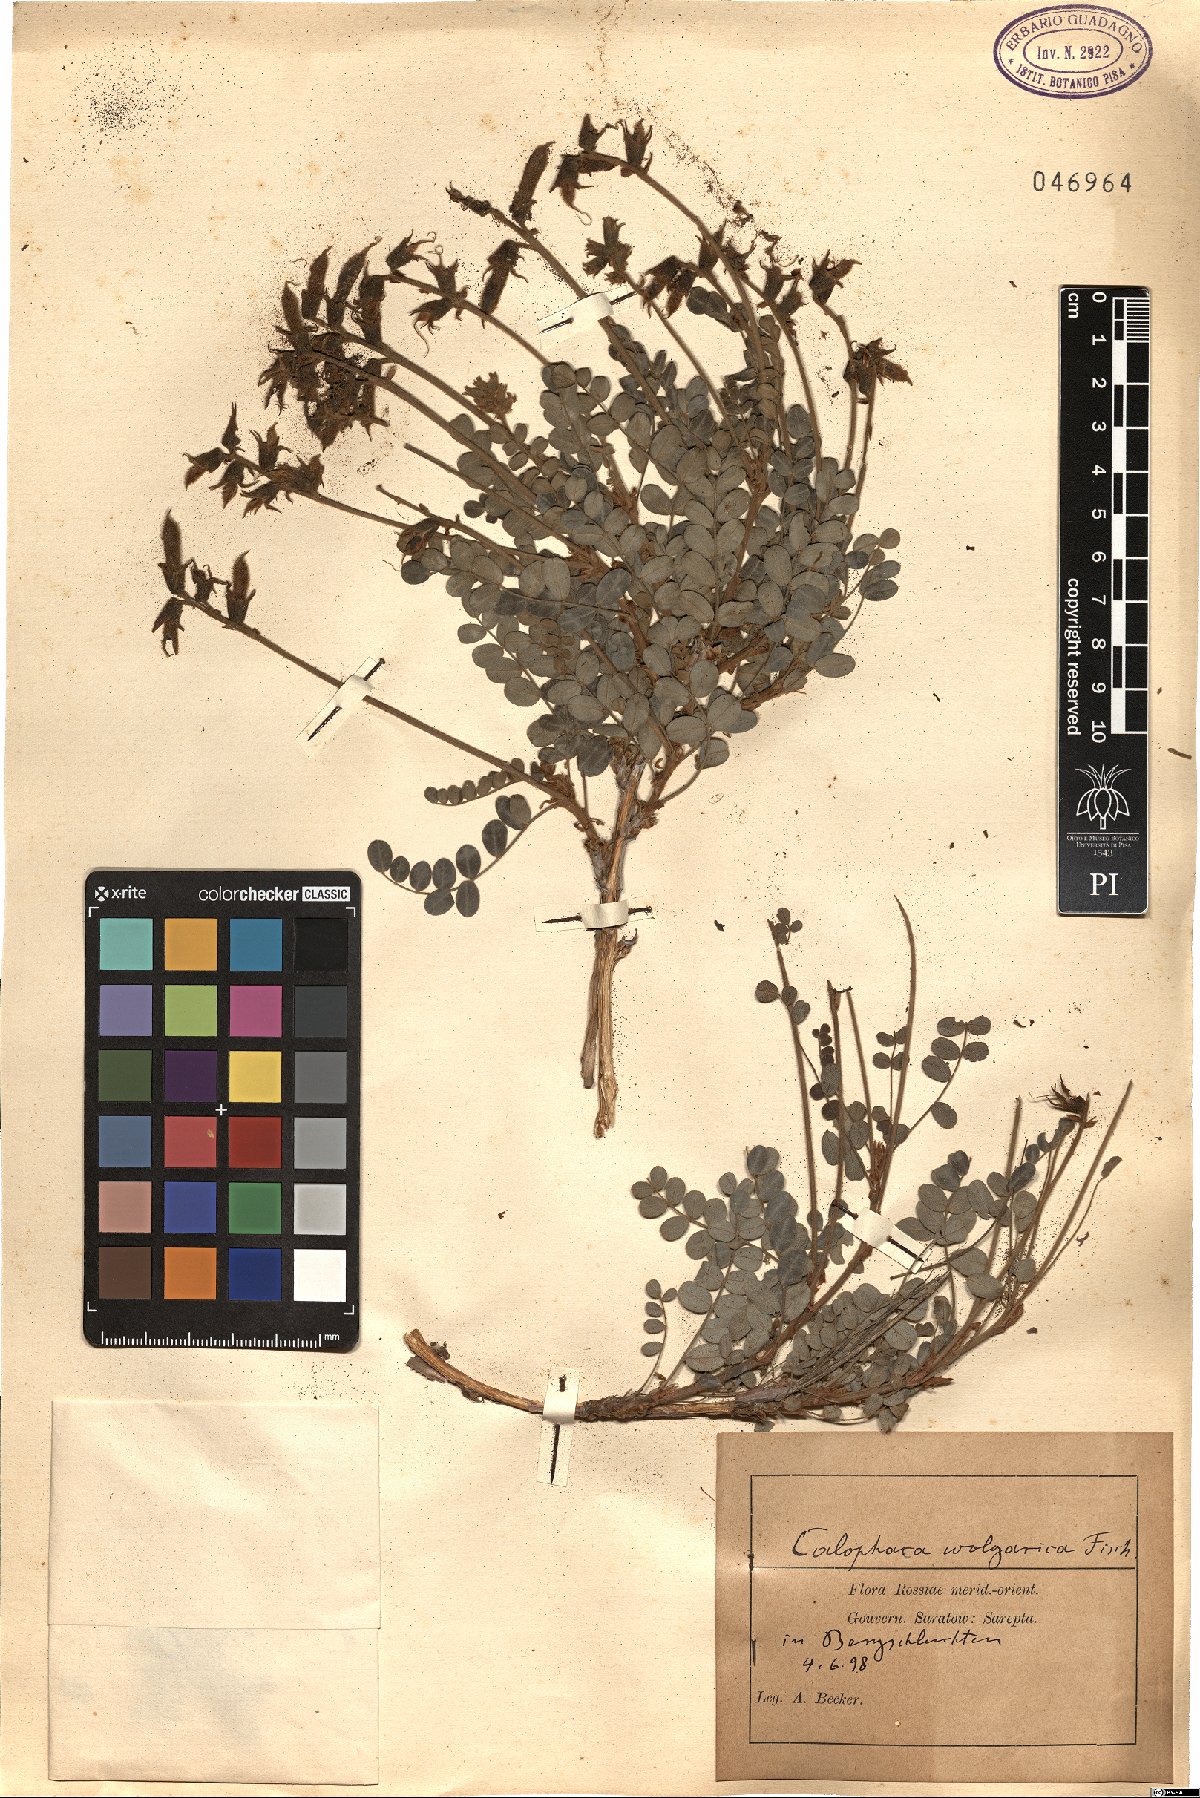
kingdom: Plantae
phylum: Tracheophyta
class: Magnoliopsida
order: Fabales
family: Fabaceae
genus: Calophaca
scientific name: Calophaca wolgarica
